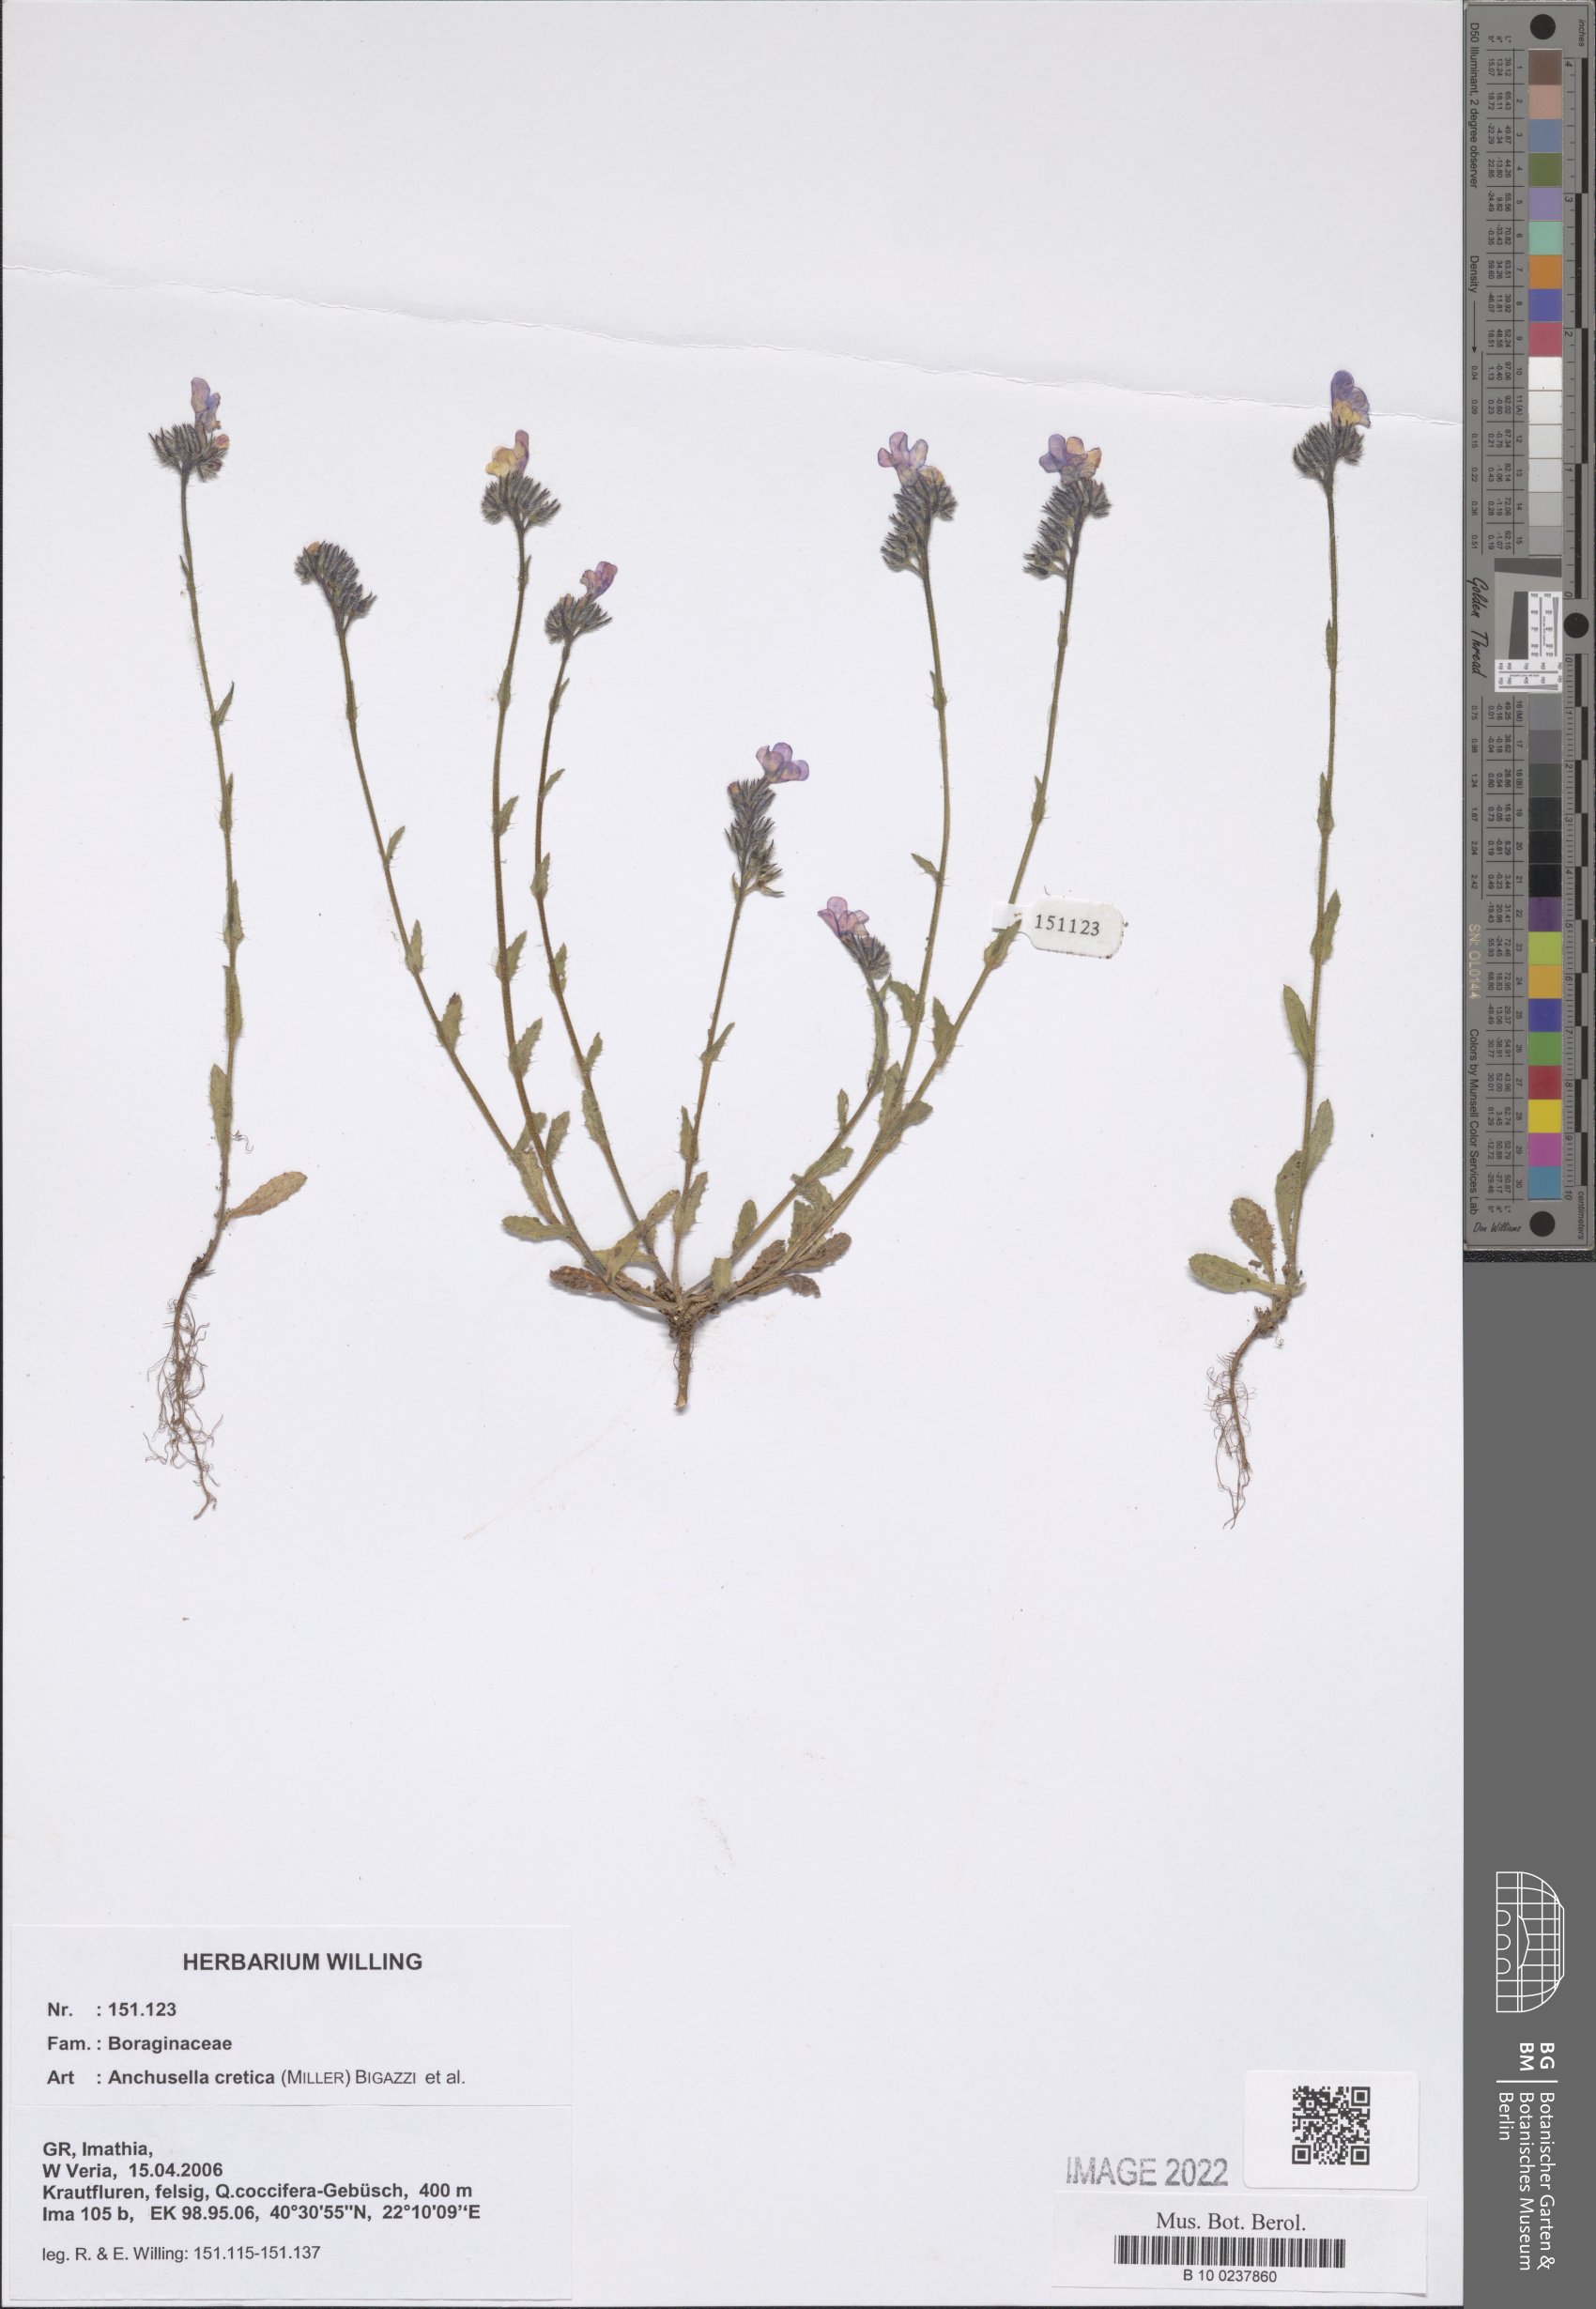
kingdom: Plantae
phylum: Tracheophyta
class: Magnoliopsida
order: Boraginales
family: Boraginaceae
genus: Lycopsis
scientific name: Lycopsis arvensis
